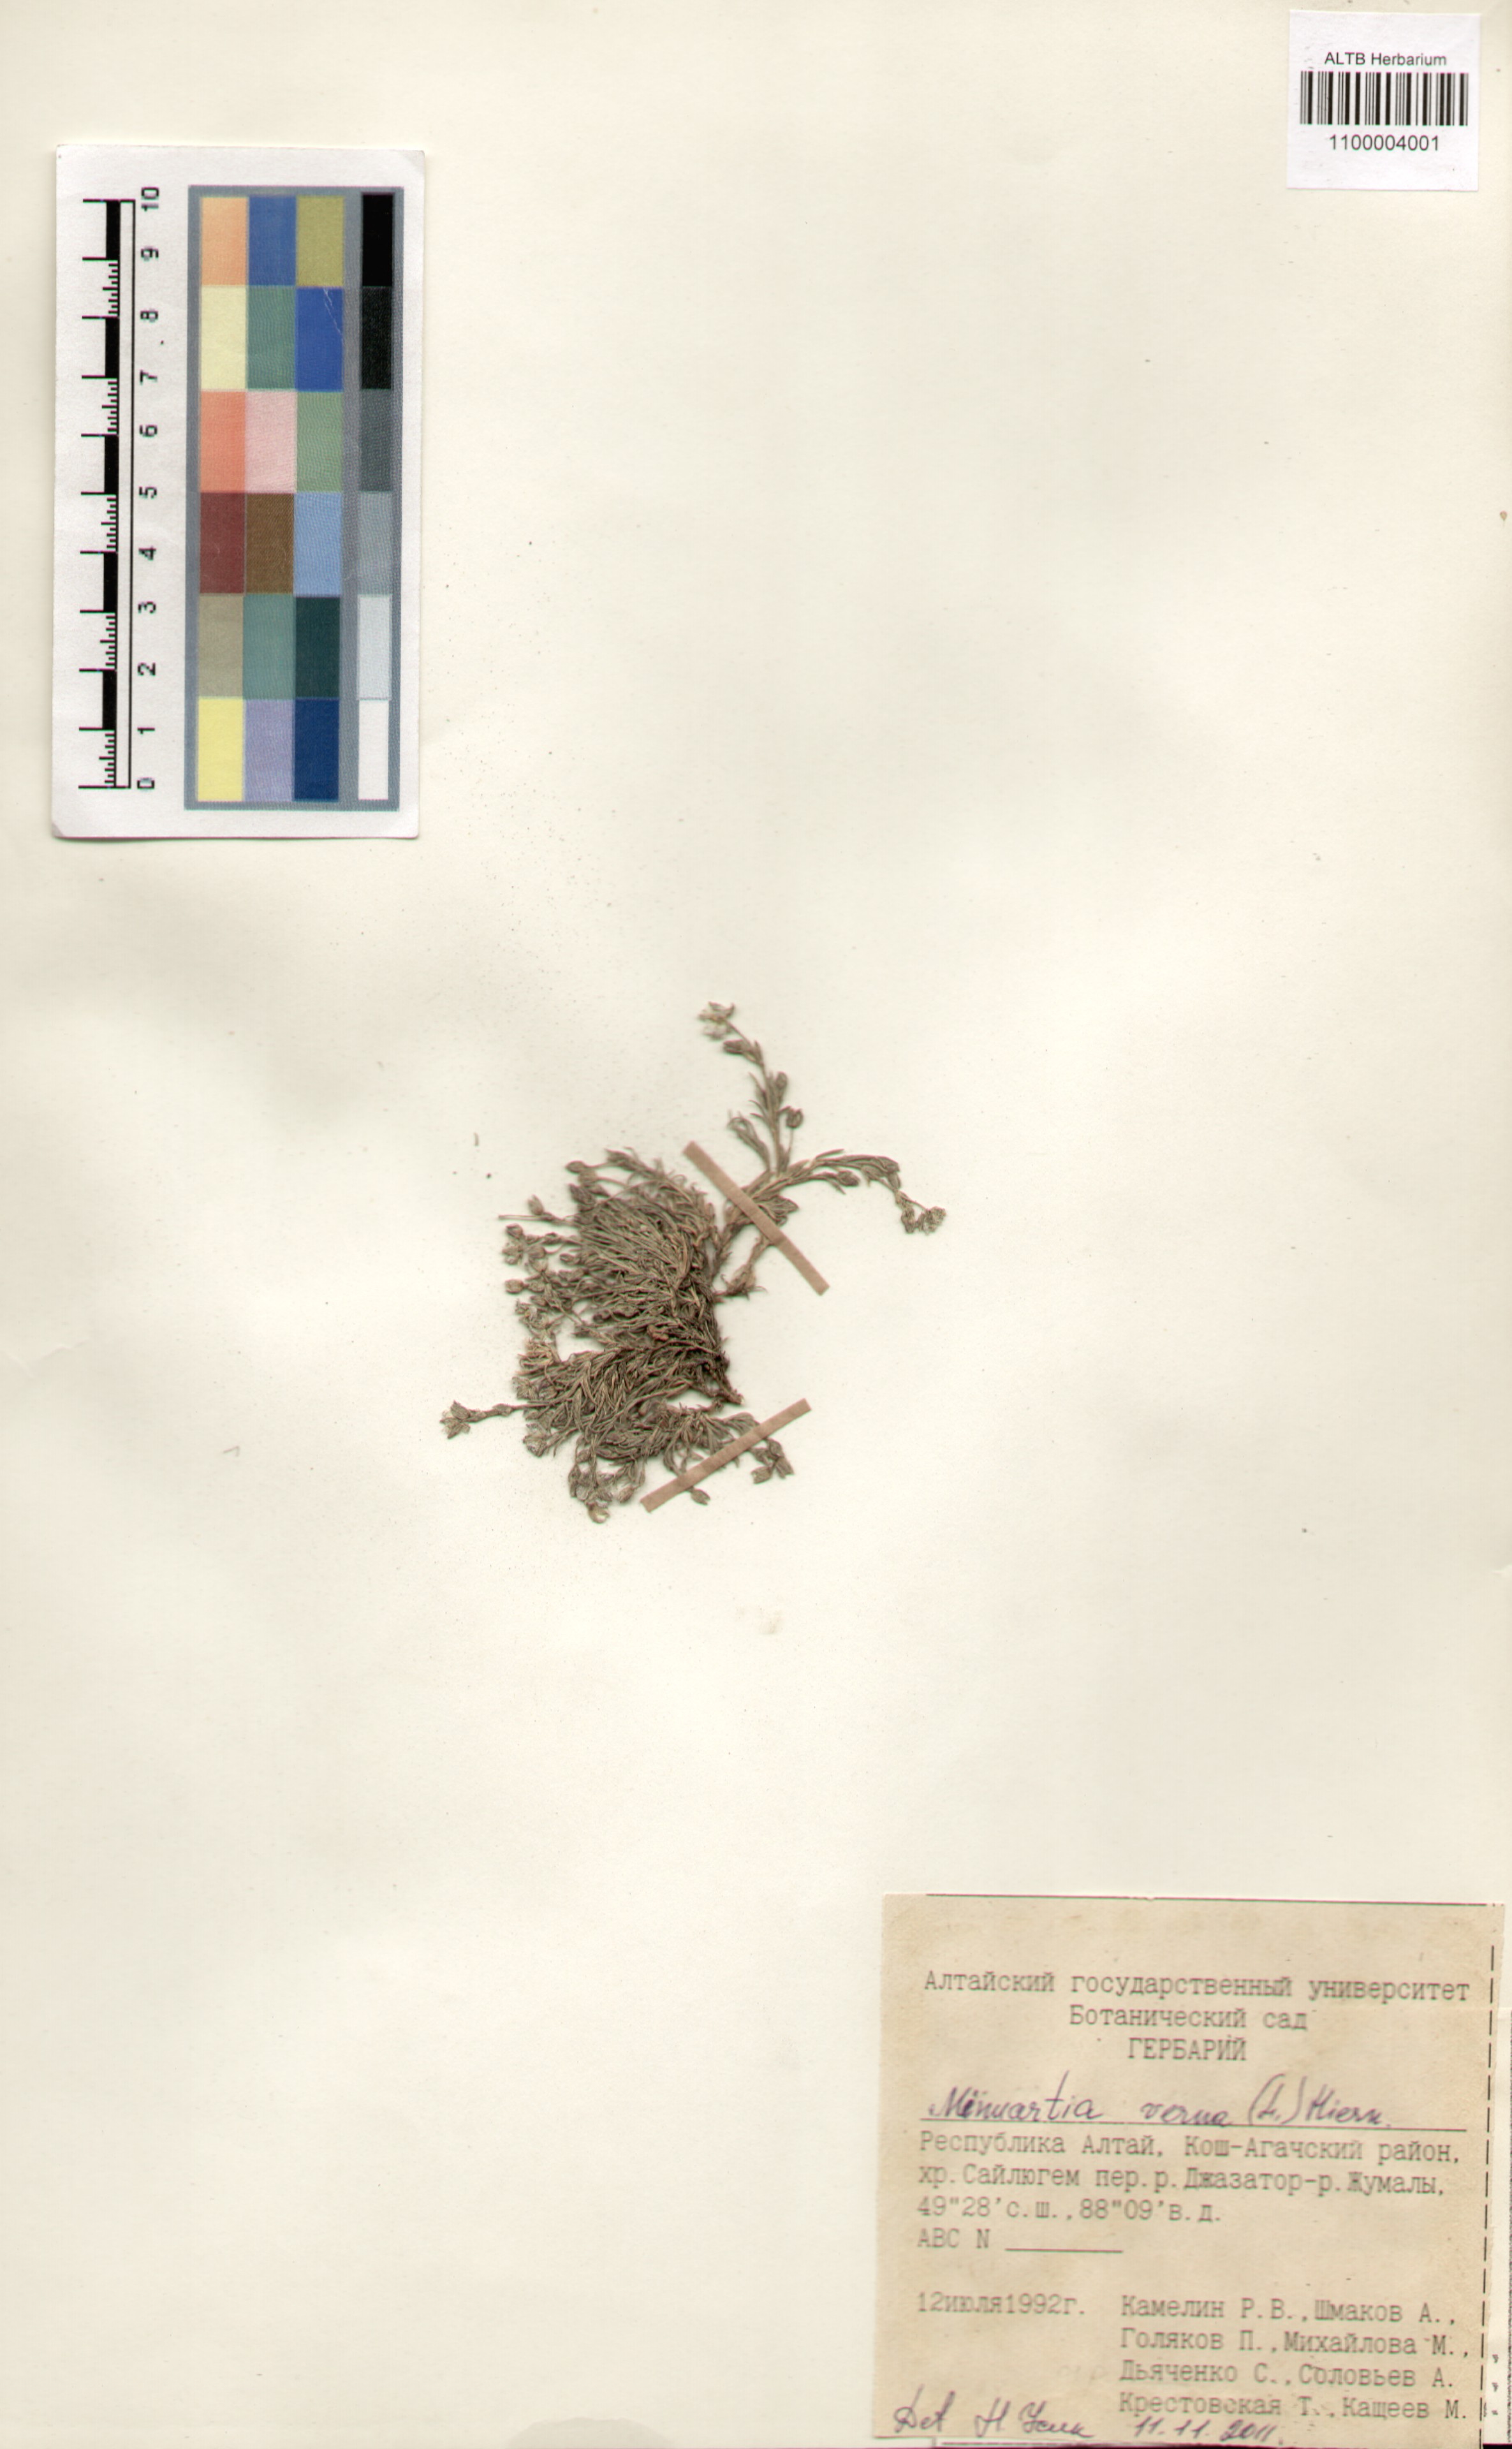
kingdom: Plantae
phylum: Tracheophyta
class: Magnoliopsida
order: Caryophyllales
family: Caryophyllaceae
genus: Sabulina
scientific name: Sabulina verna
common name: Spring sandwort
